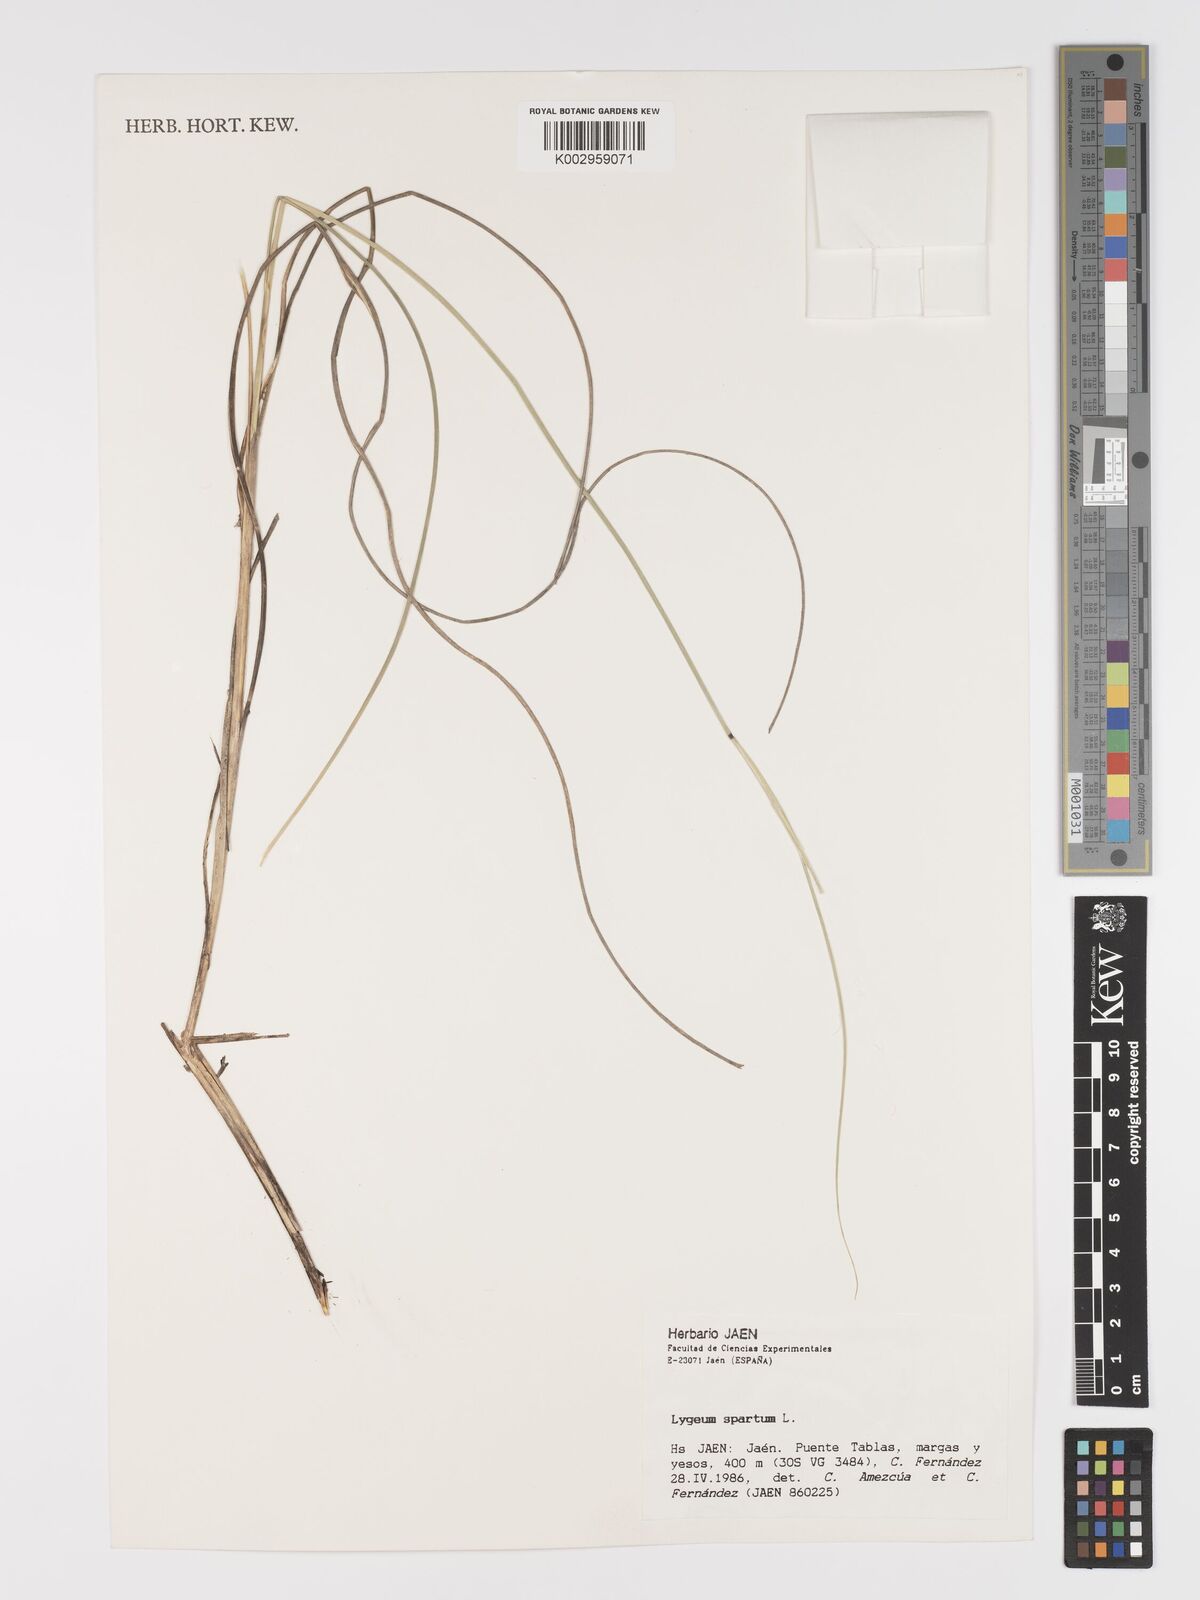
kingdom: Plantae
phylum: Tracheophyta
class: Liliopsida
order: Poales
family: Poaceae
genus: Lygeum
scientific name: Lygeum spartum
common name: Albardine
